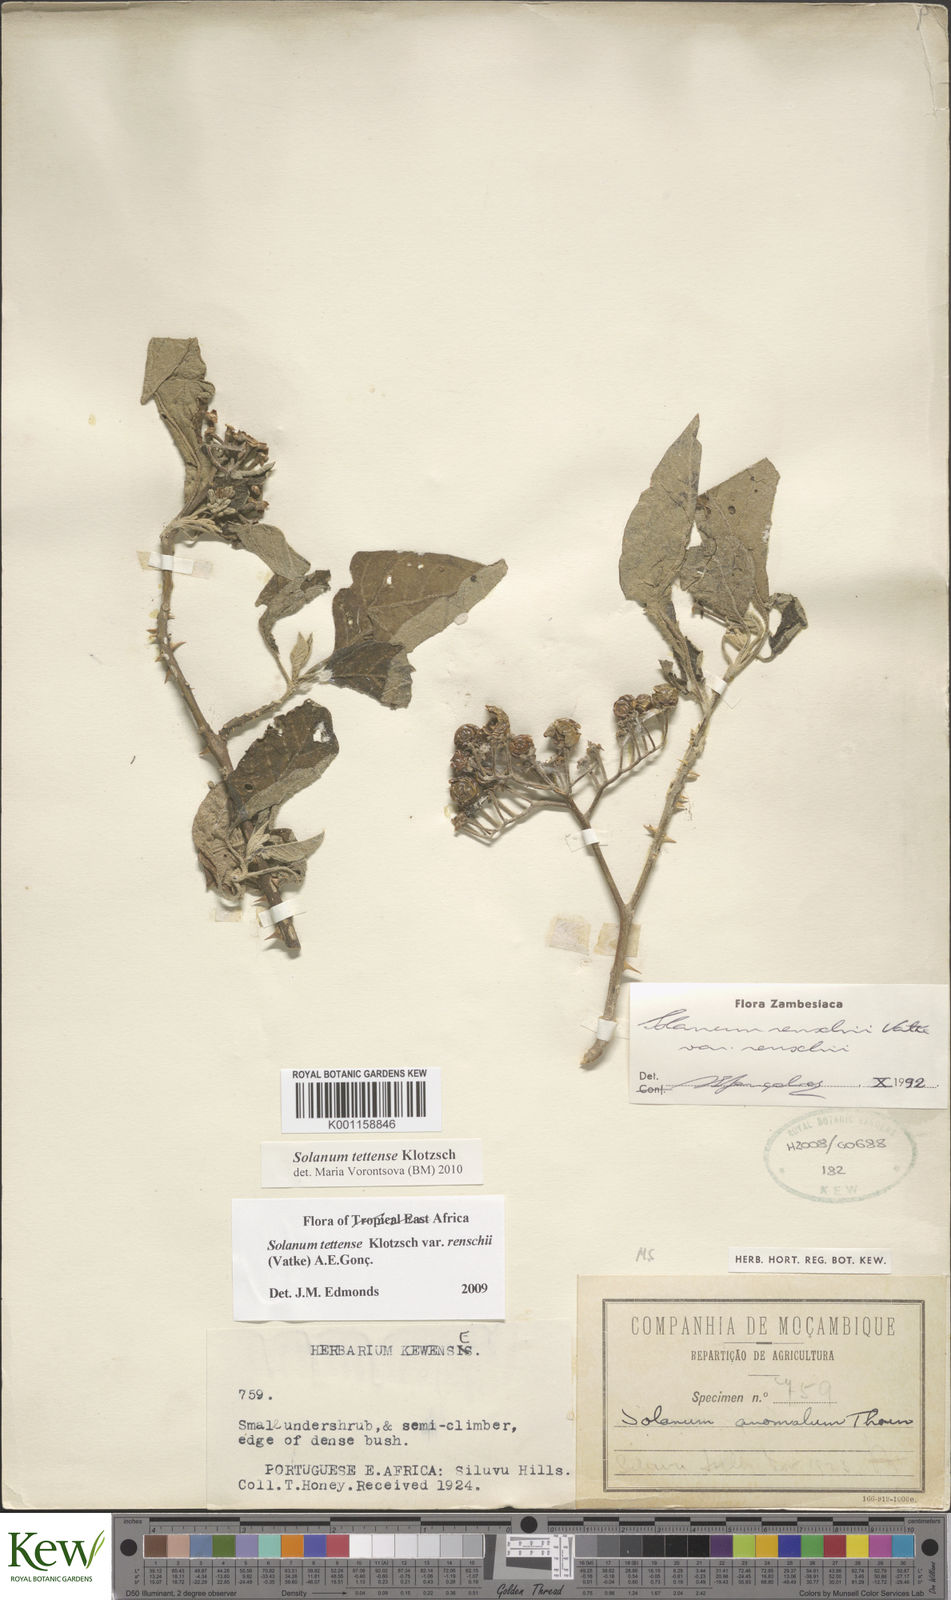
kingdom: Plantae
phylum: Tracheophyta
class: Magnoliopsida
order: Solanales
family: Solanaceae
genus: Solanum
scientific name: Solanum tettense
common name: Mozambique bitter apple
